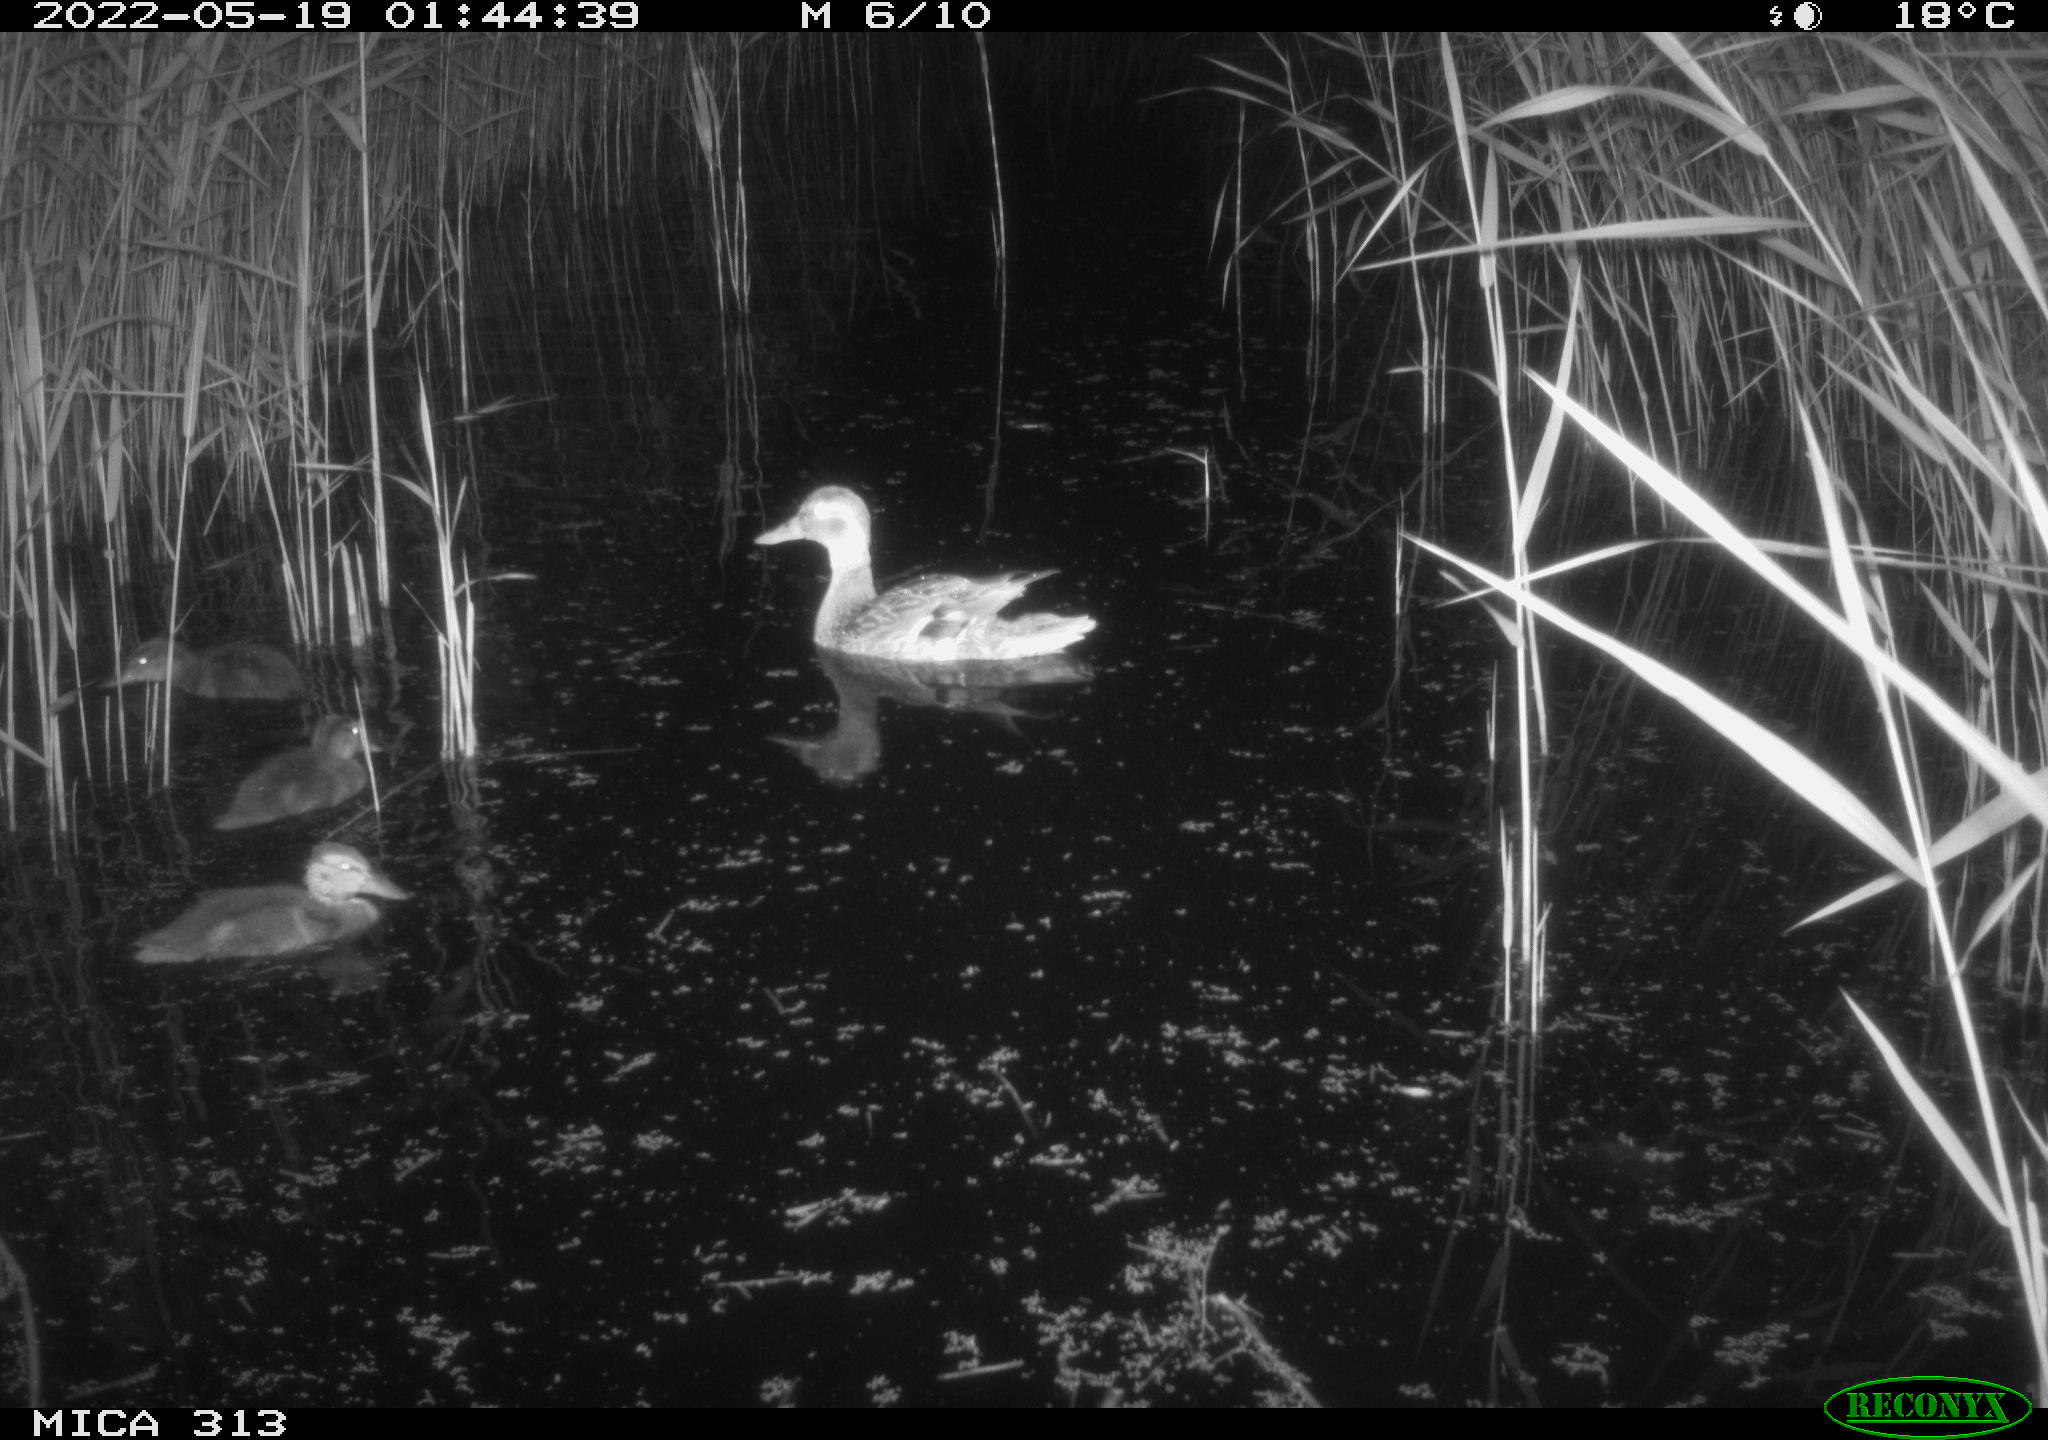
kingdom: Animalia
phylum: Chordata
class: Aves
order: Anseriformes
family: Anatidae
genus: Anas
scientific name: Anas platyrhynchos
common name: Mallard
